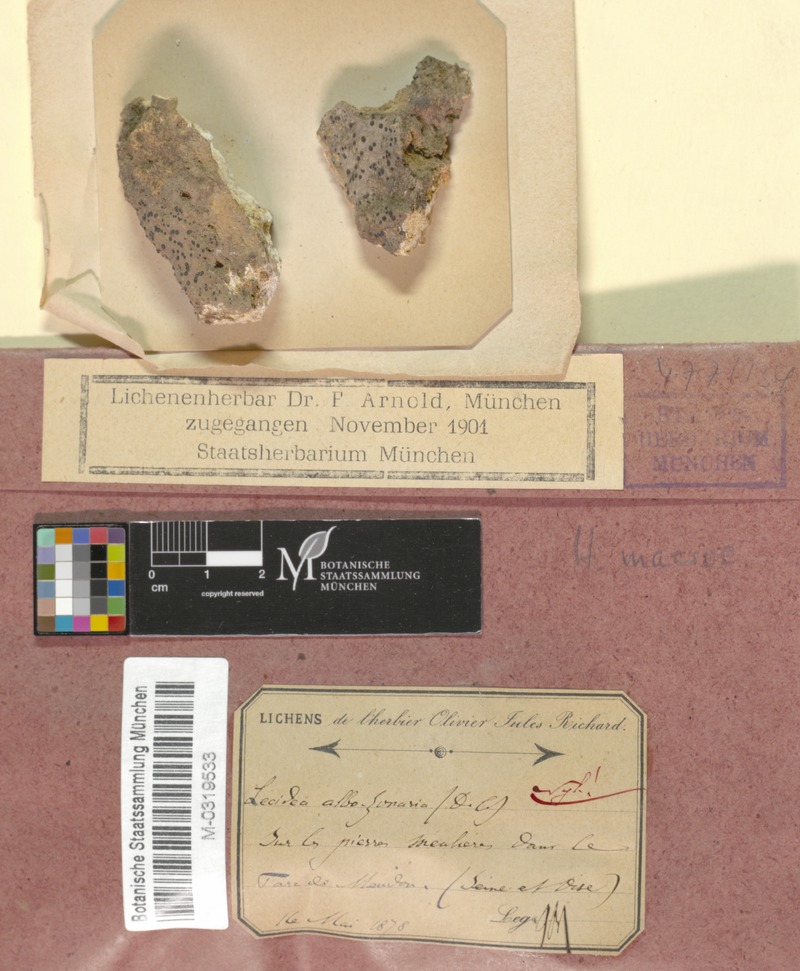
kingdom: Fungi
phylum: Ascomycota
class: Lecanoromycetes
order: Lecideales
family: Lecideaceae
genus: Porpidia
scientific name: Porpidia macrocarpa
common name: Common boulder lichen
